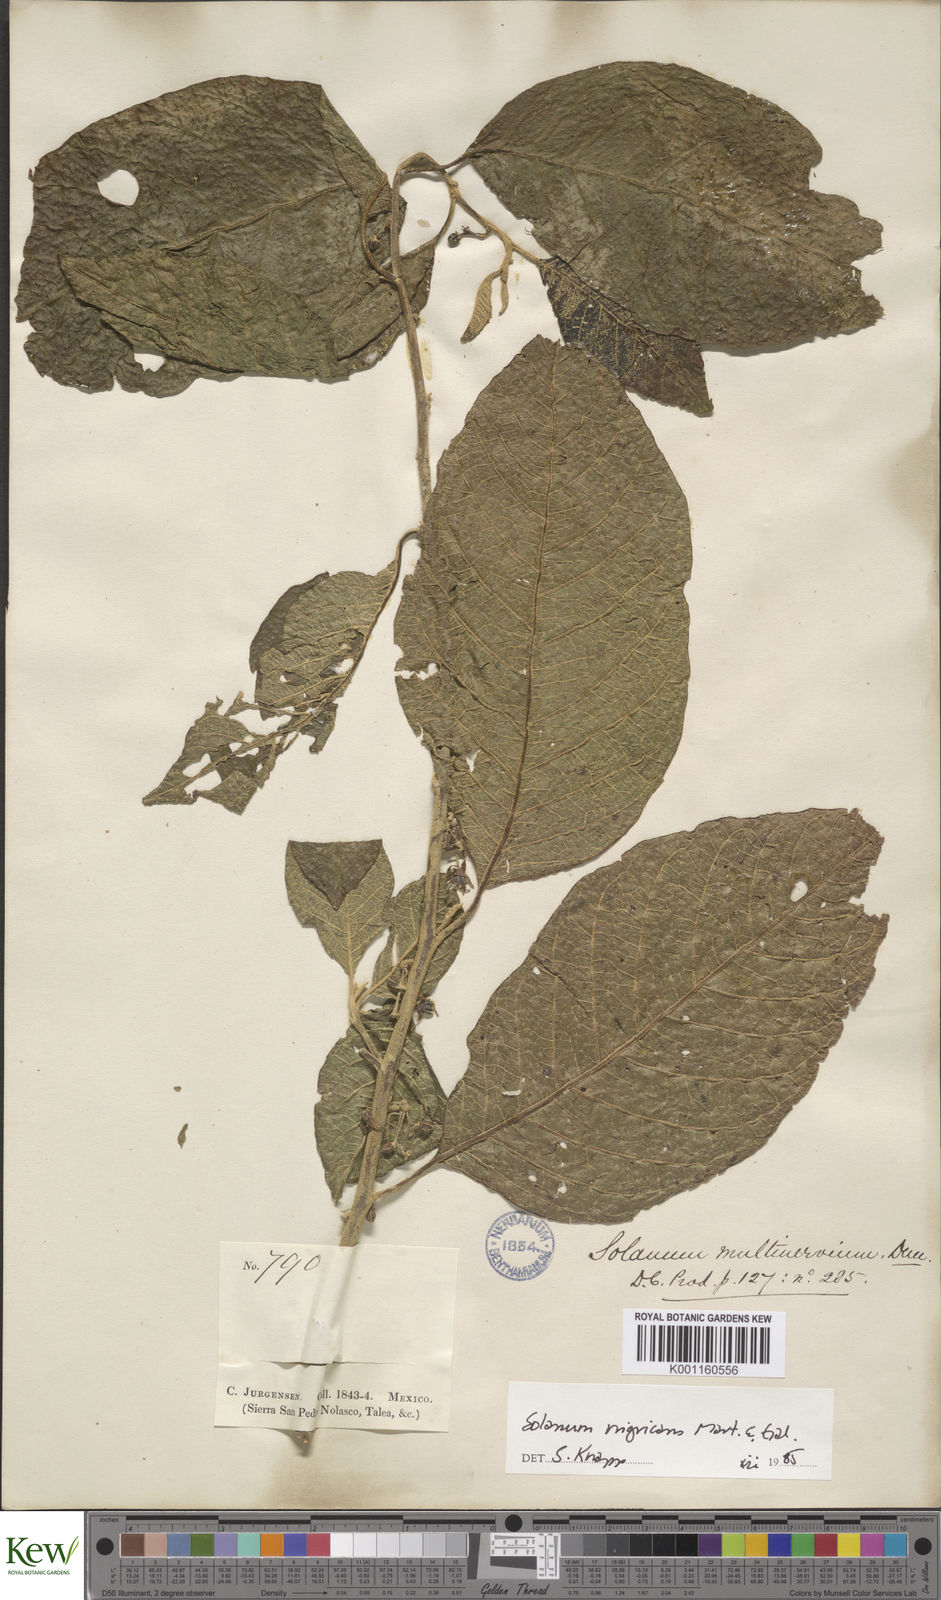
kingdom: Plantae
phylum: Tracheophyta
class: Magnoliopsida
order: Solanales
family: Solanaceae
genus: Solanum
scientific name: Solanum nigricans
